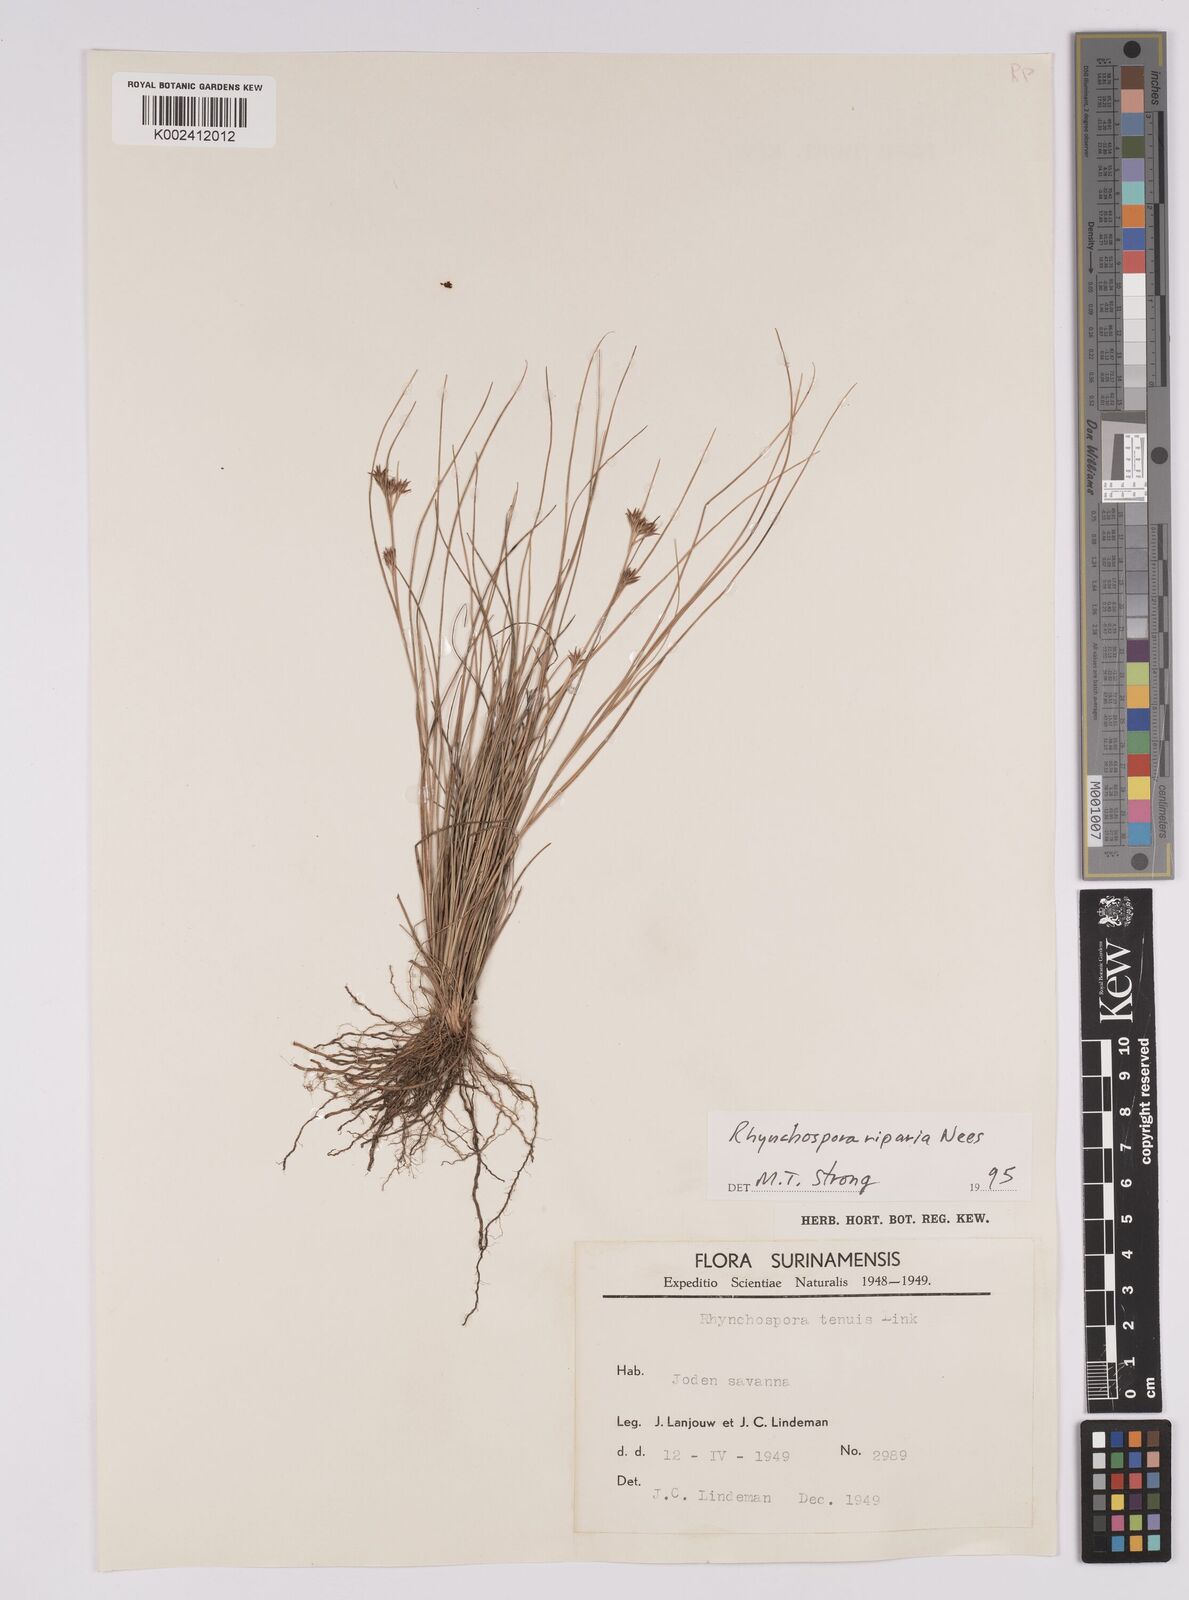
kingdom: Plantae
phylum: Tracheophyta
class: Liliopsida
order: Poales
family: Cyperaceae
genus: Rhynchospora
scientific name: Rhynchospora riparia
